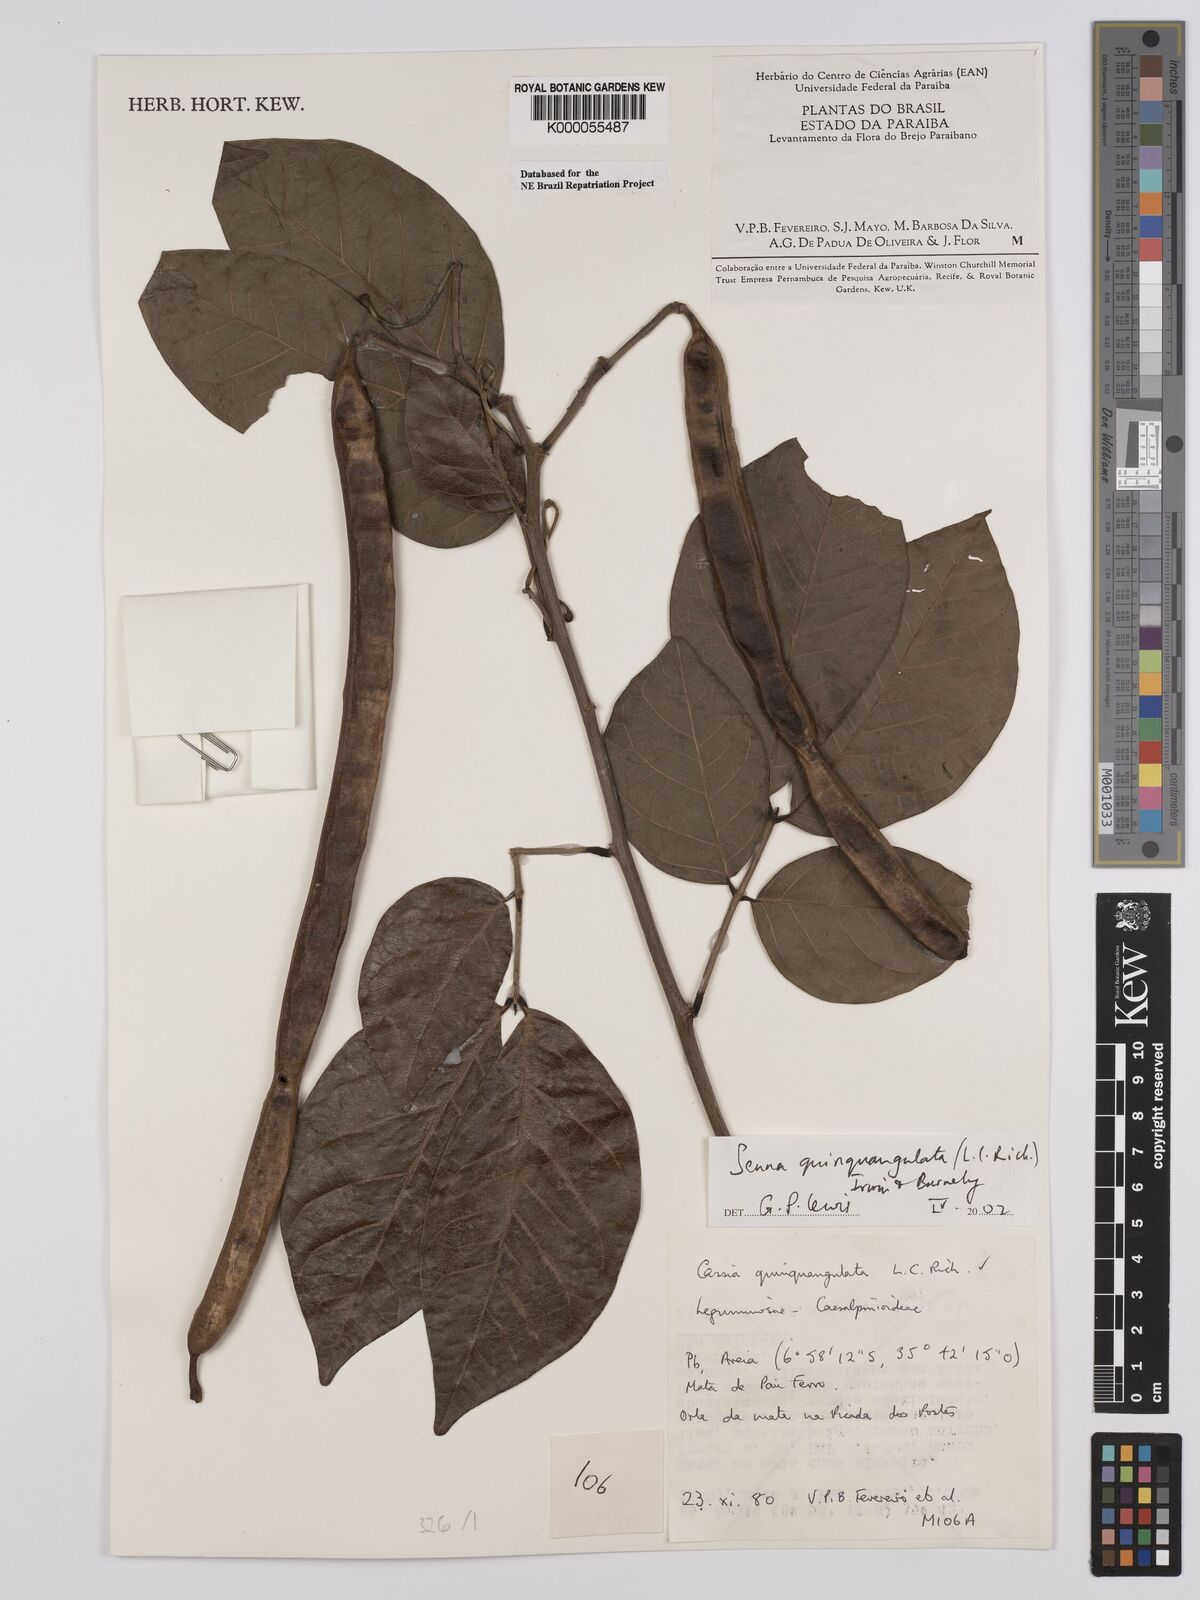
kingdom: Plantae
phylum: Tracheophyta
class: Magnoliopsida
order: Fabales
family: Fabaceae
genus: Senna
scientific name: Senna quinquangulata
